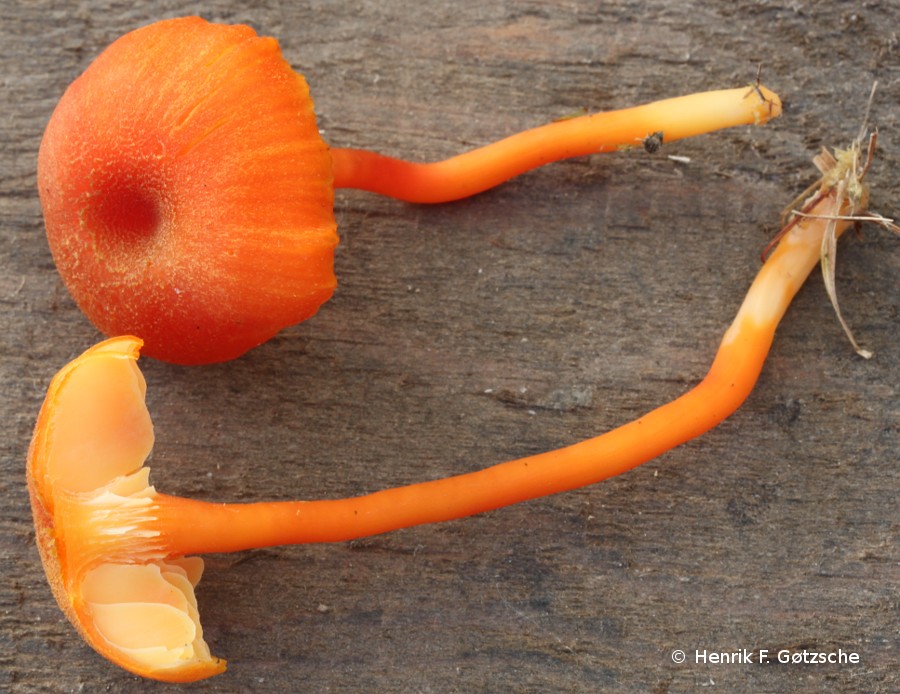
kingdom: Fungi
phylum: Basidiomycota
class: Agaricomycetes
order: Agaricales
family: Hygrophoraceae
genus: Hygrocybe
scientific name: Hygrocybe miniata
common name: mønje-vokshat
